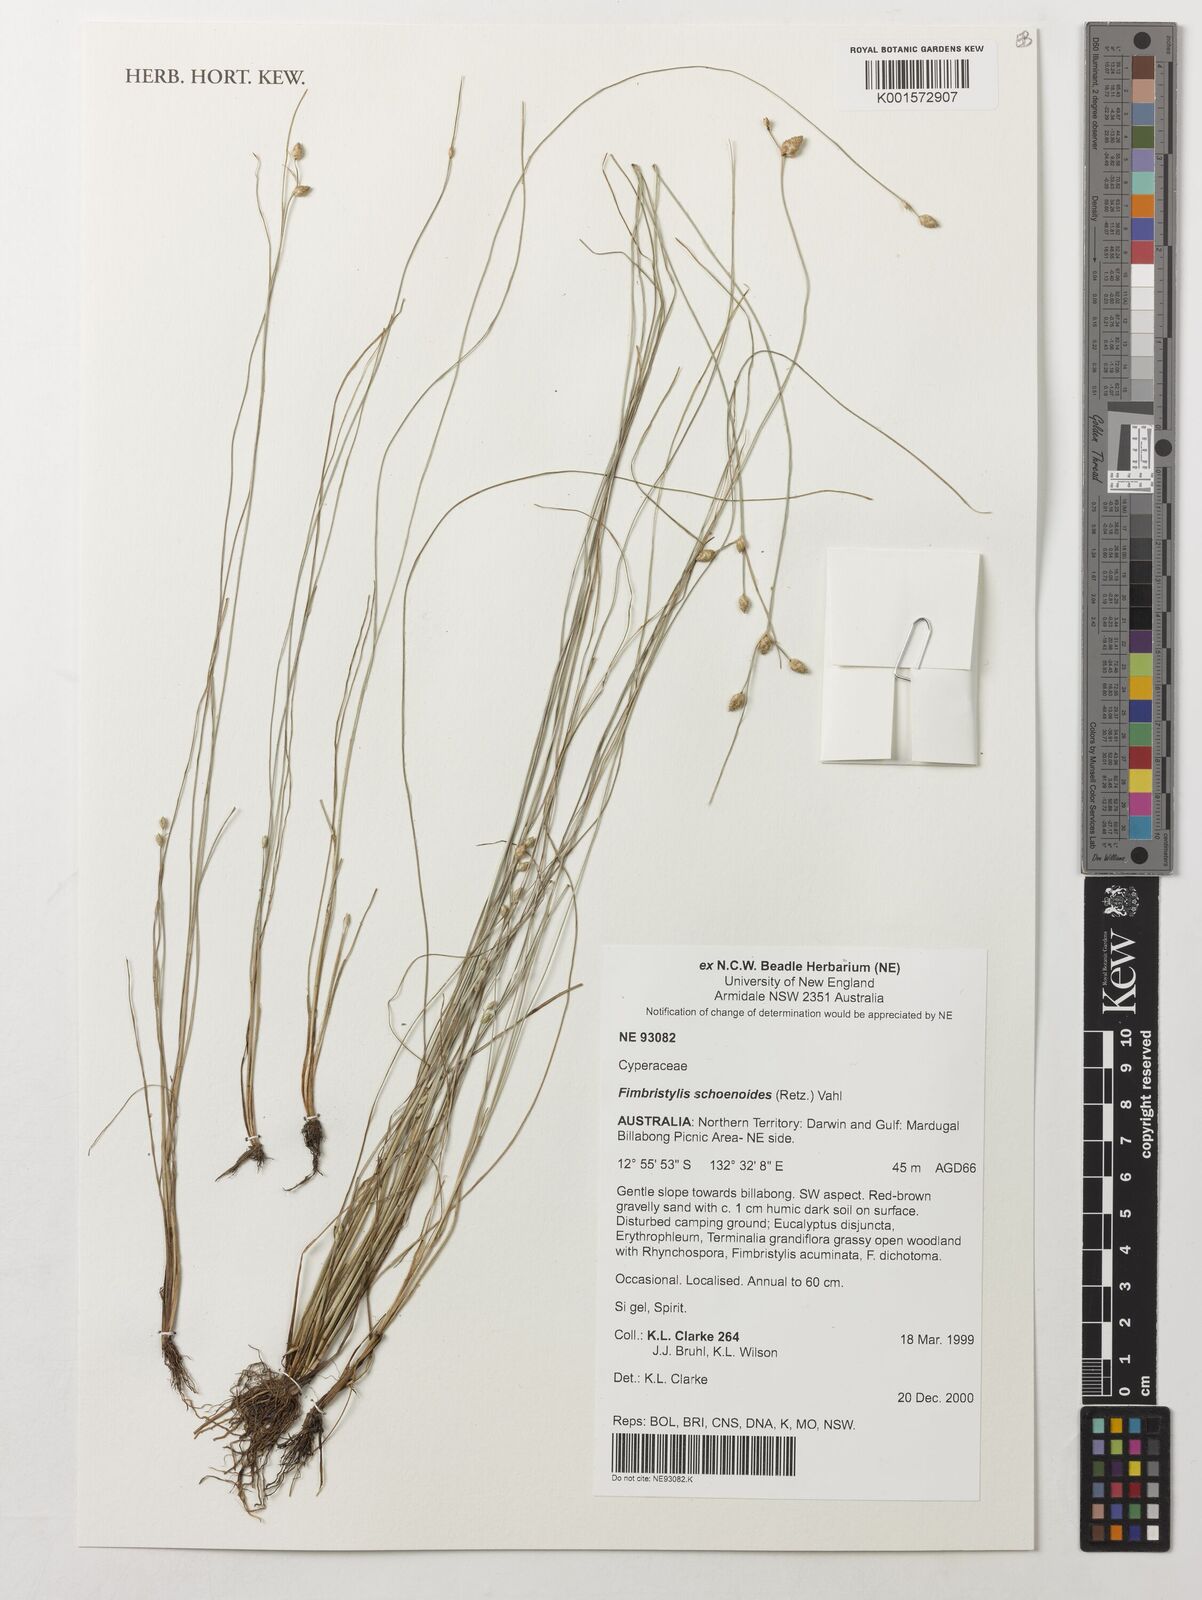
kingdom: Plantae
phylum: Tracheophyta
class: Liliopsida
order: Poales
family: Cyperaceae
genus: Fimbristylis
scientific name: Fimbristylis schoenoides
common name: Ditch fimbry
